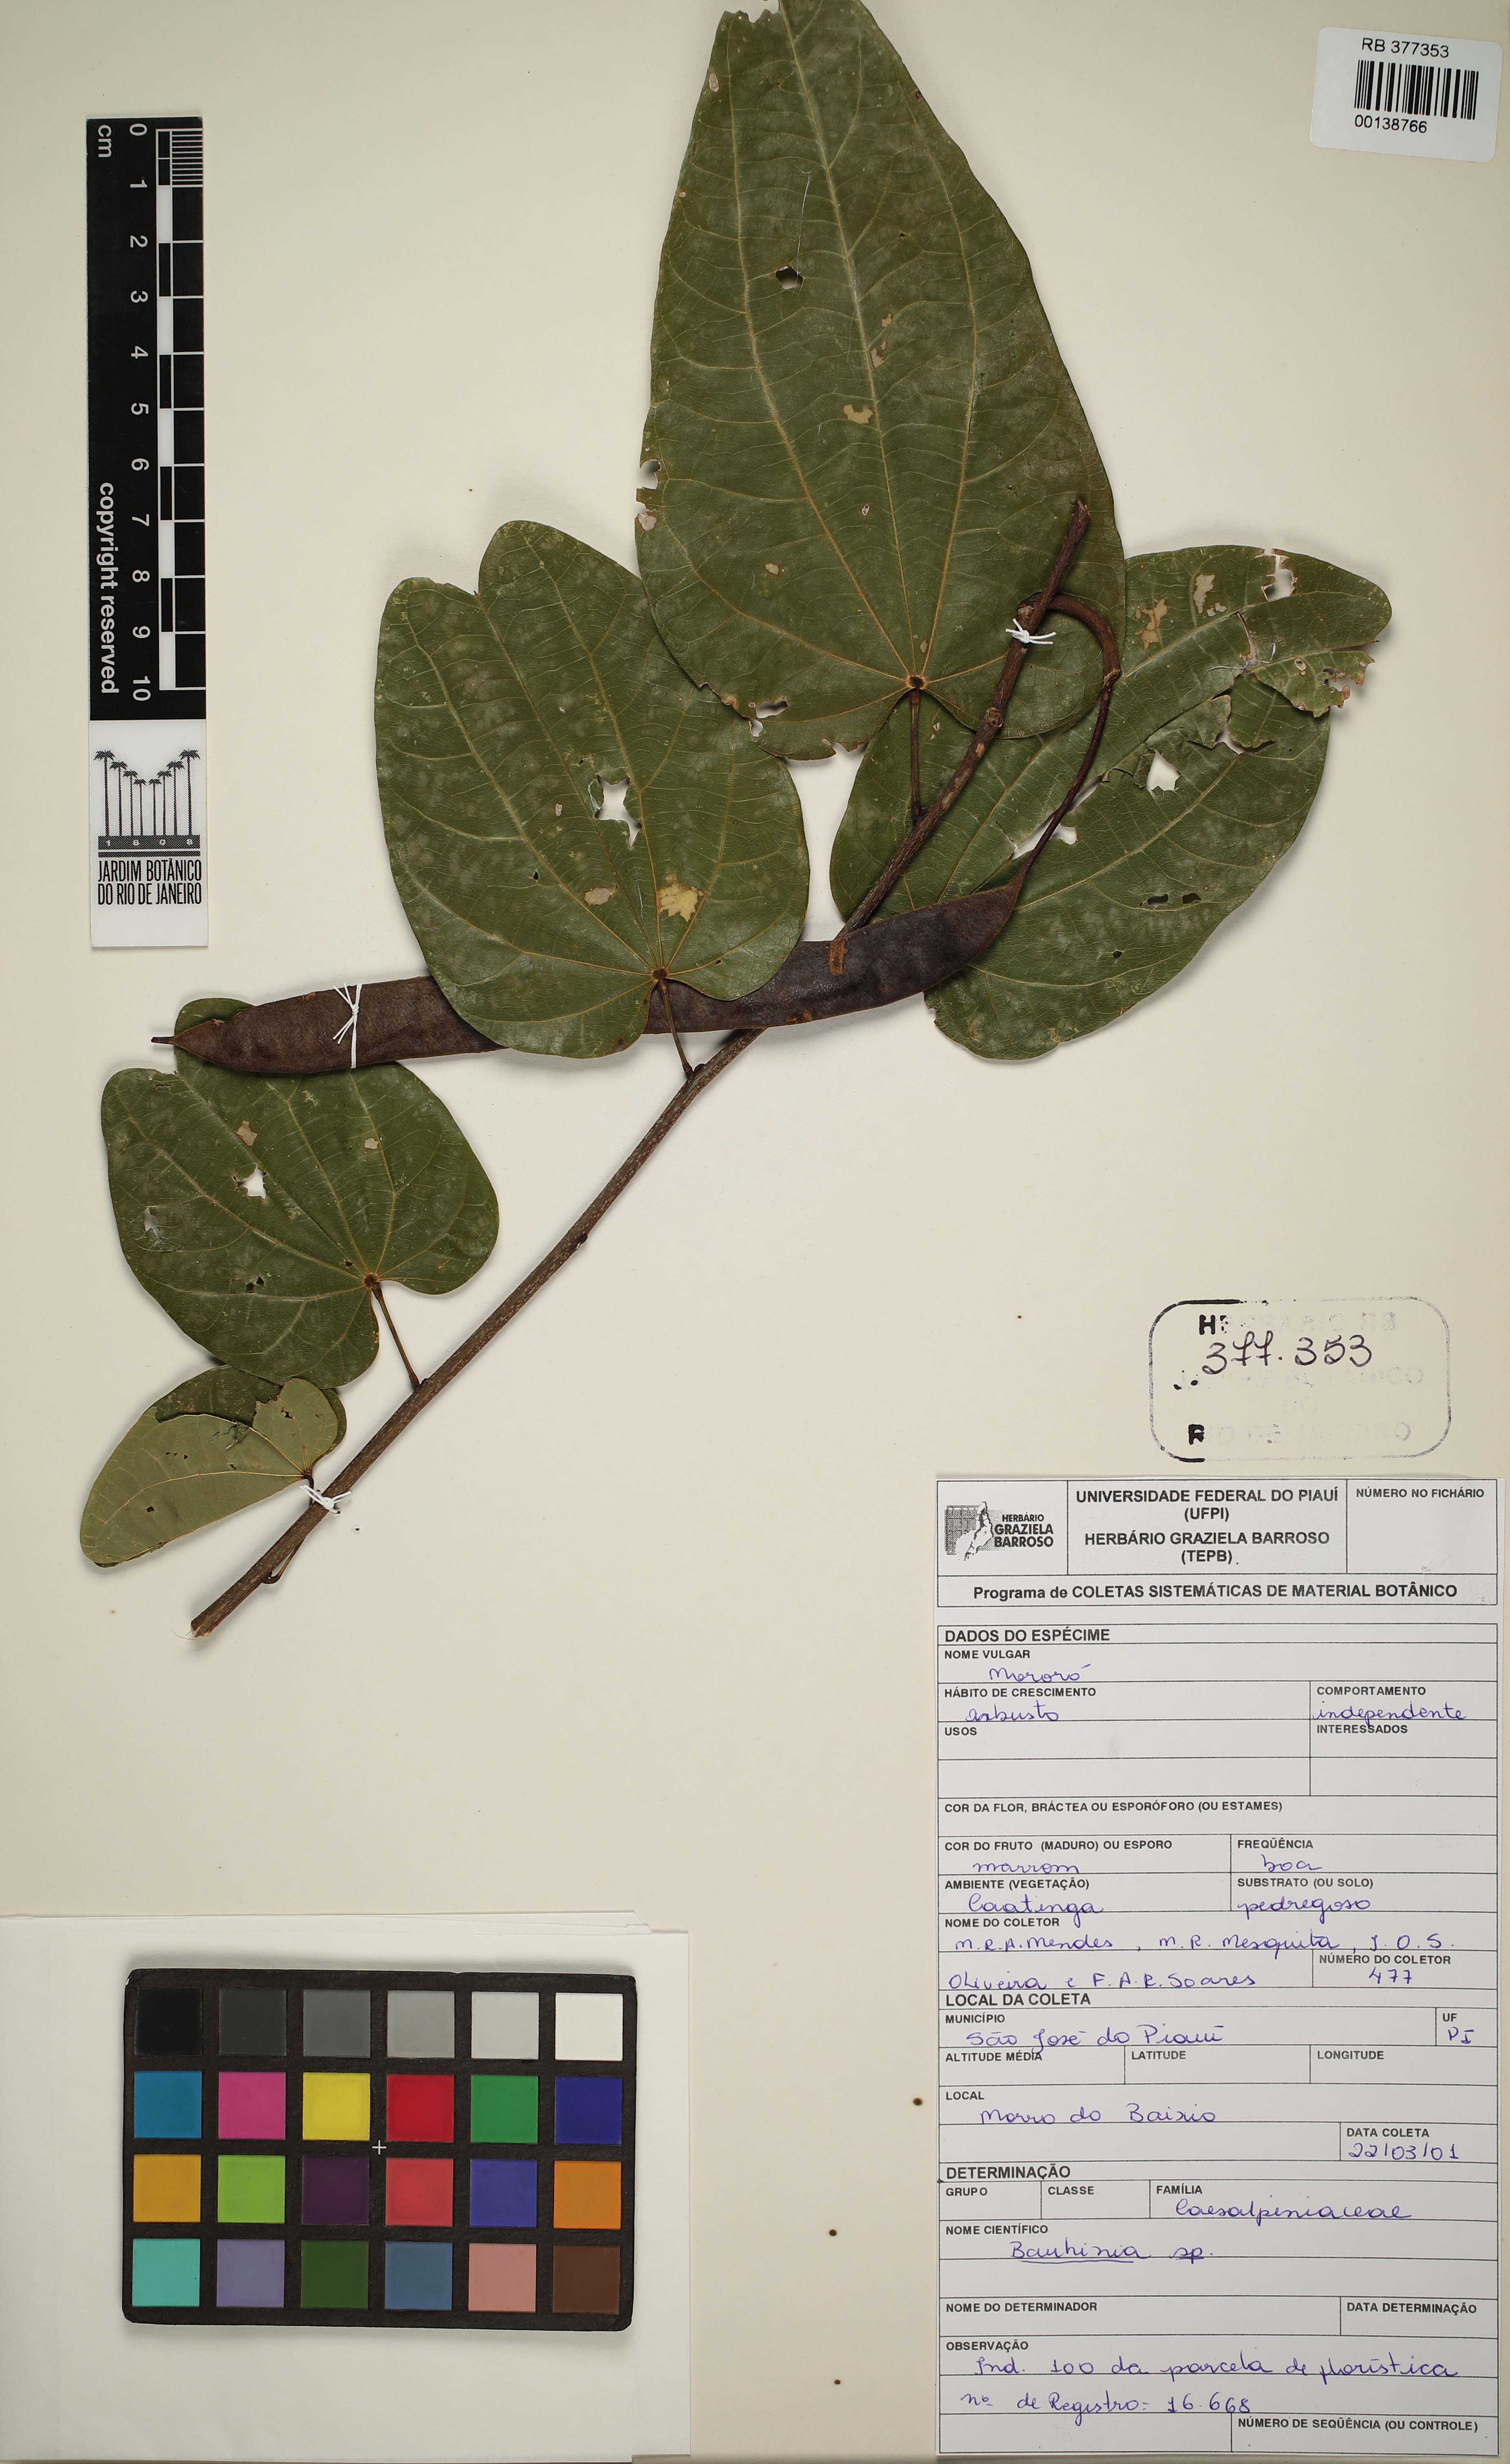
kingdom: Plantae
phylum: Tracheophyta
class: Magnoliopsida
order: Fabales
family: Fabaceae
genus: Bauhinia
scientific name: Bauhinia
